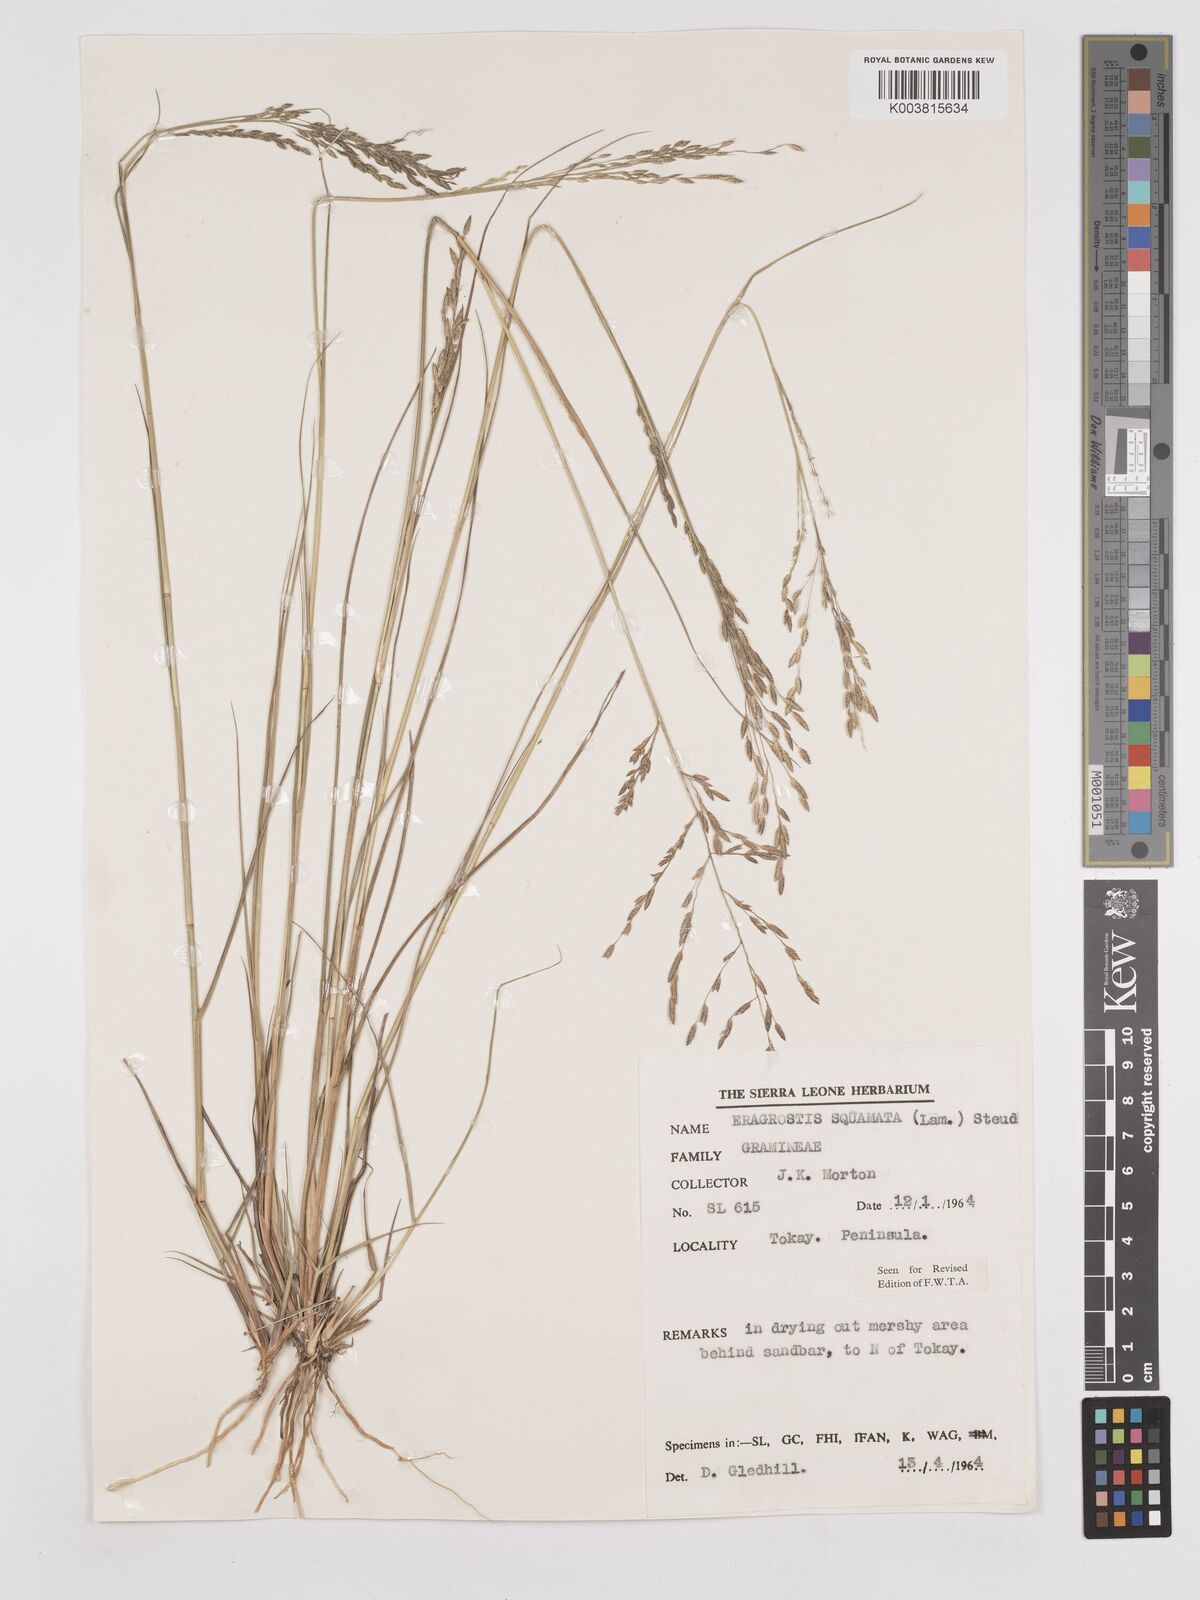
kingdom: Plantae
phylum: Tracheophyta
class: Liliopsida
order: Poales
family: Poaceae
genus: Eragrostis
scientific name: Eragrostis squamata
